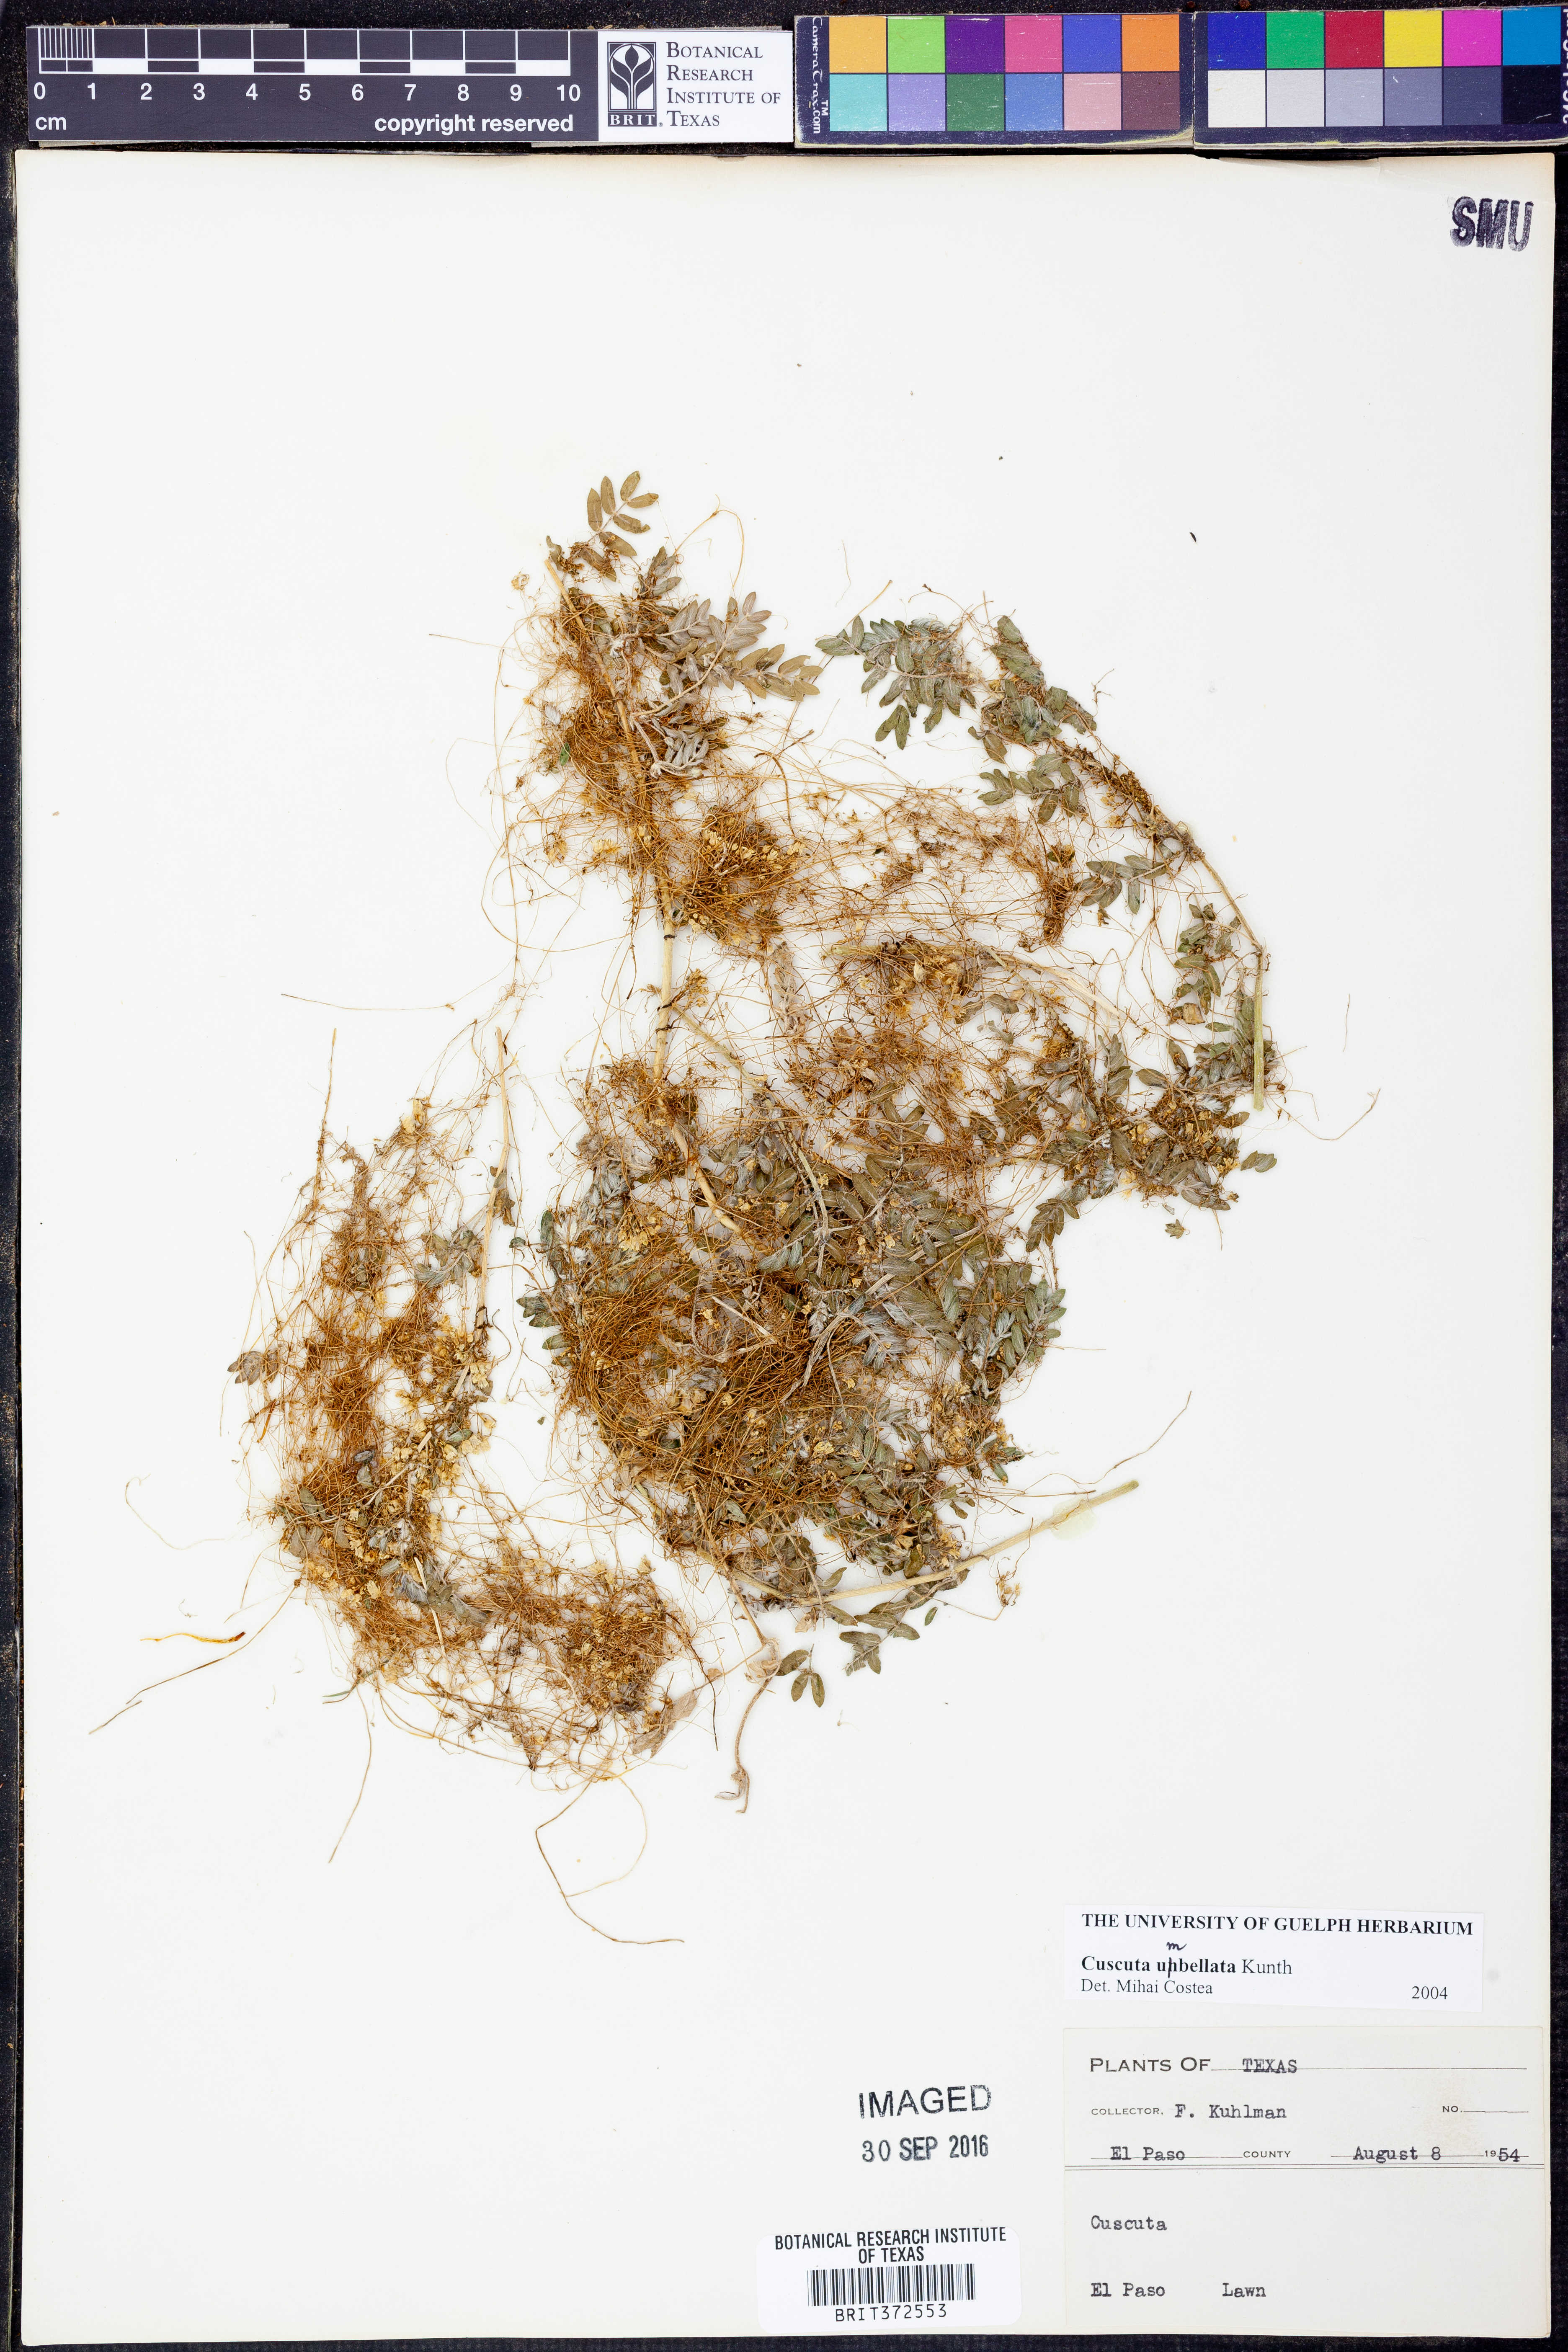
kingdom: Plantae
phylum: Tracheophyta
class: Magnoliopsida
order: Solanales
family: Convolvulaceae
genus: Cuscuta
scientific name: Cuscuta umbellata
